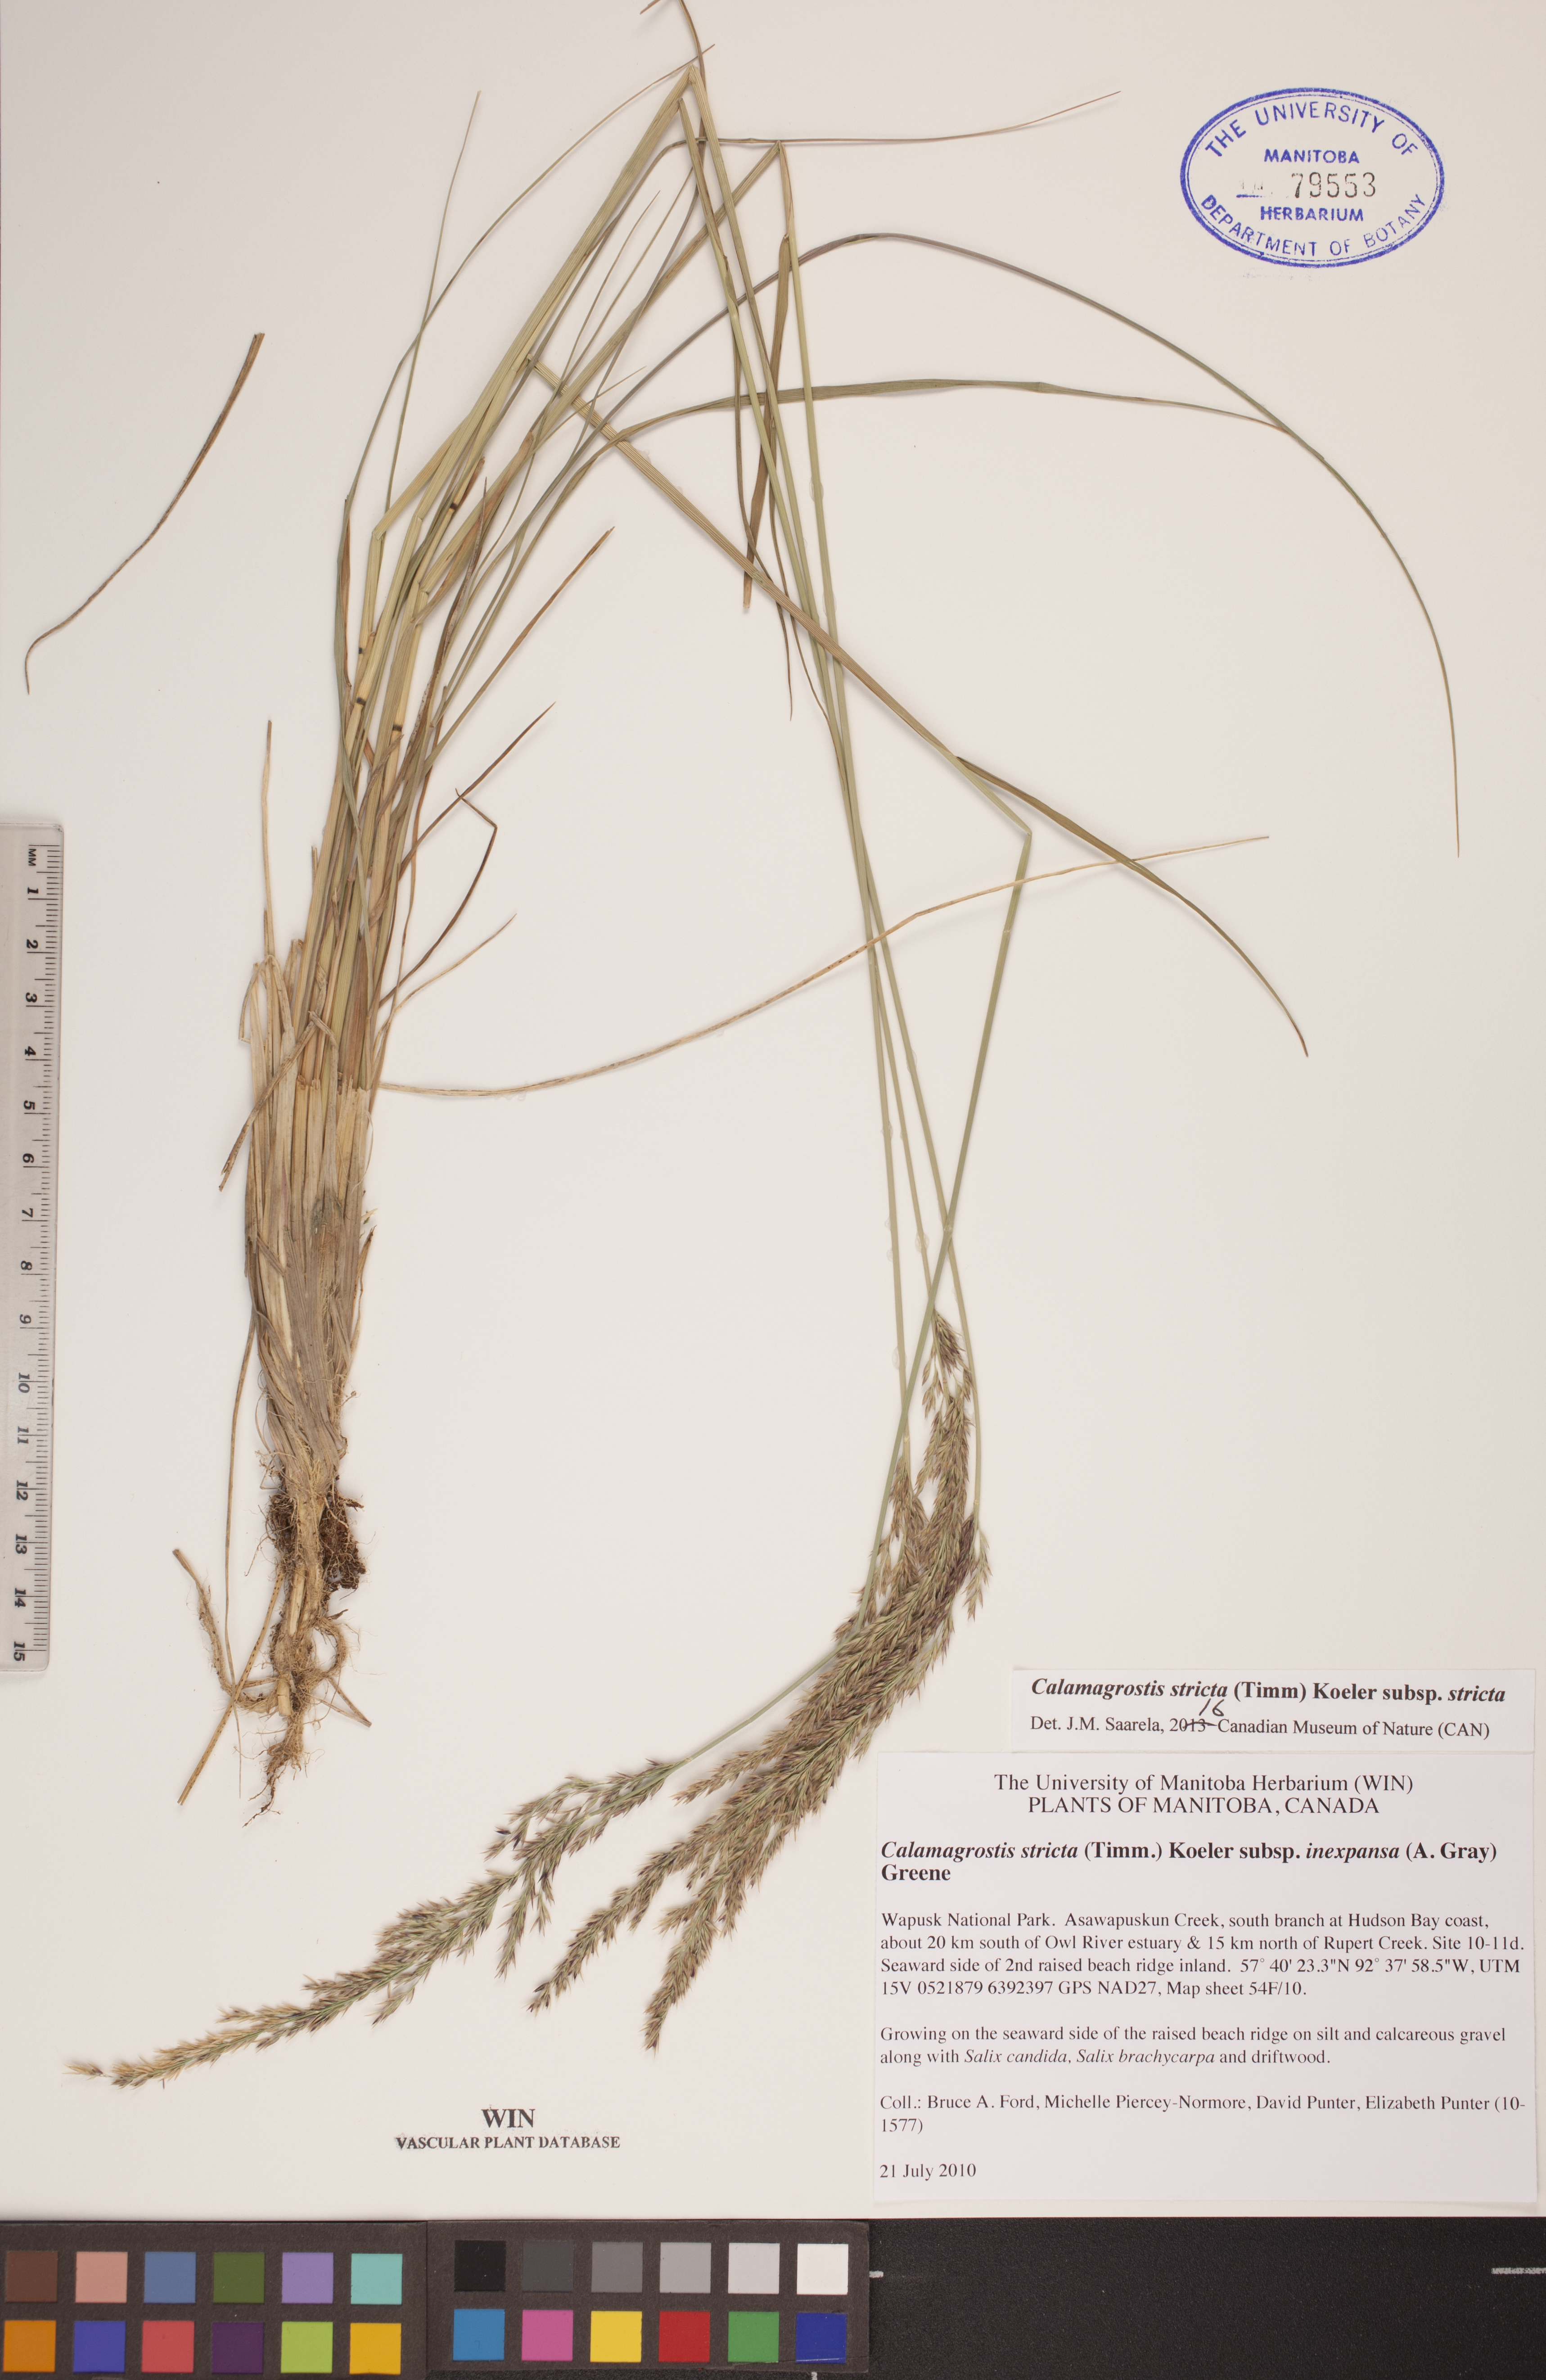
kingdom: Plantae
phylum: Tracheophyta
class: Liliopsida
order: Poales
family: Poaceae
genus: Achnatherum
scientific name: Achnatherum calamagrostis
